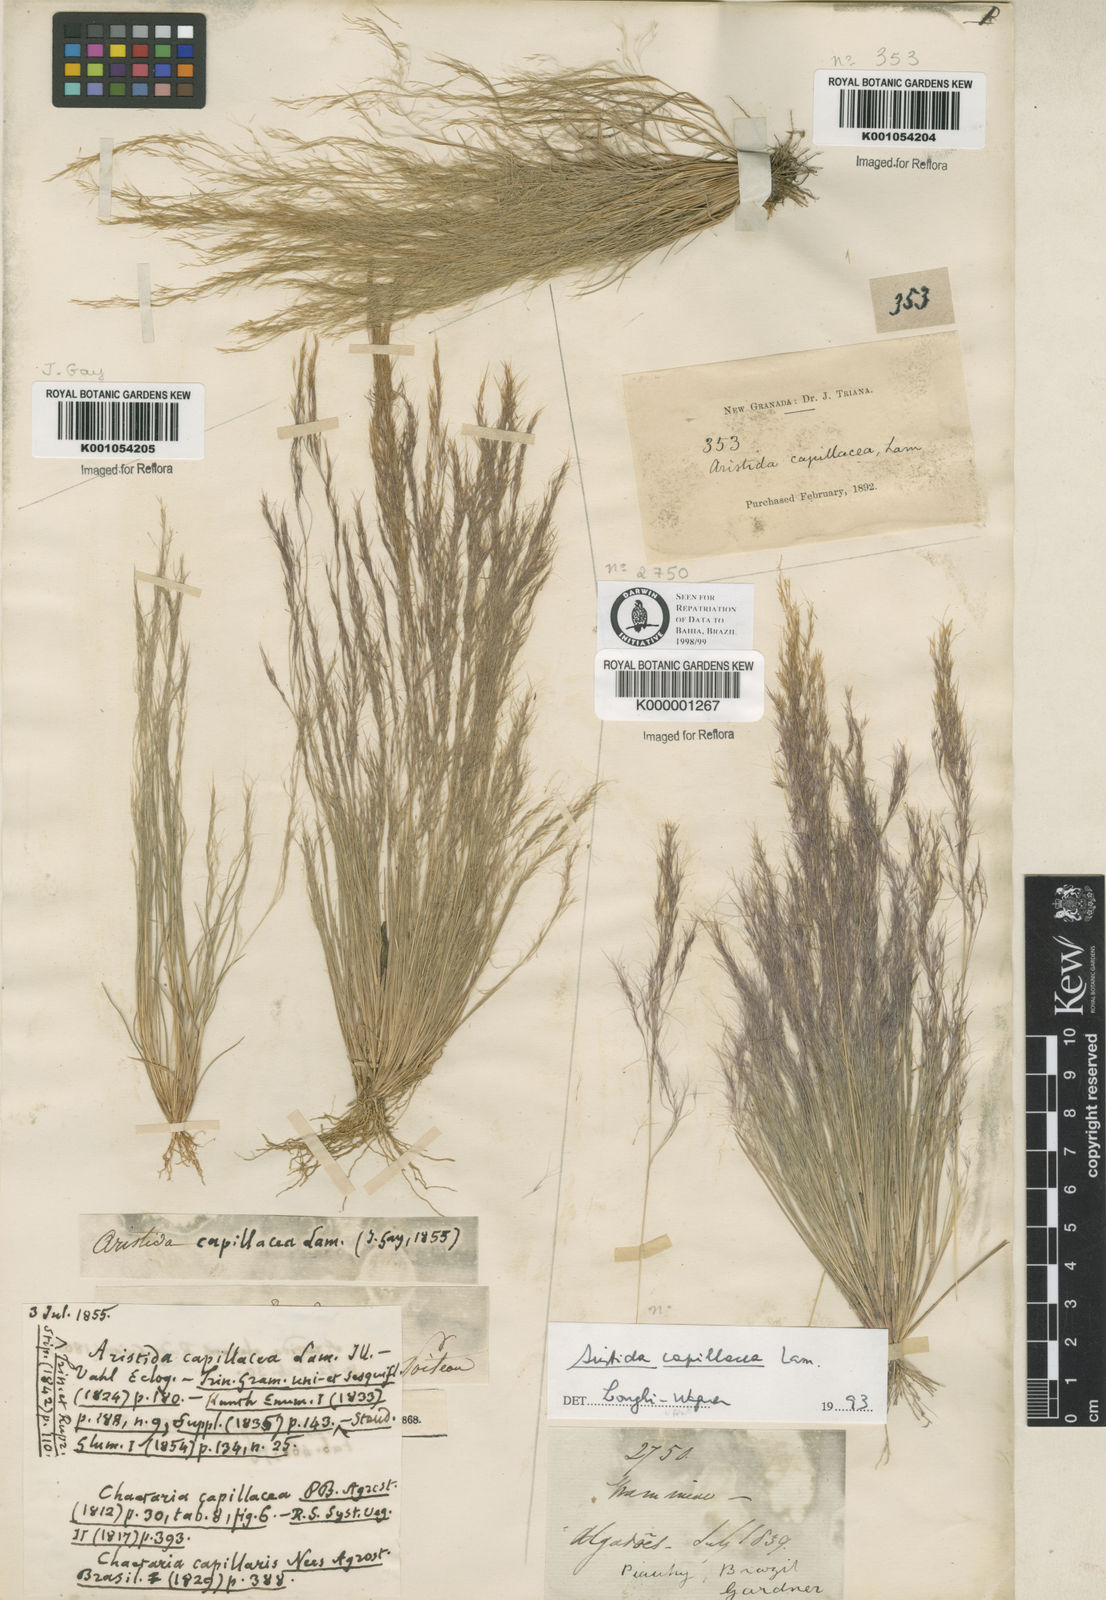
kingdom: Plantae
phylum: Tracheophyta
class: Liliopsida
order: Poales
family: Poaceae
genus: Aristida
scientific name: Aristida capillacea
